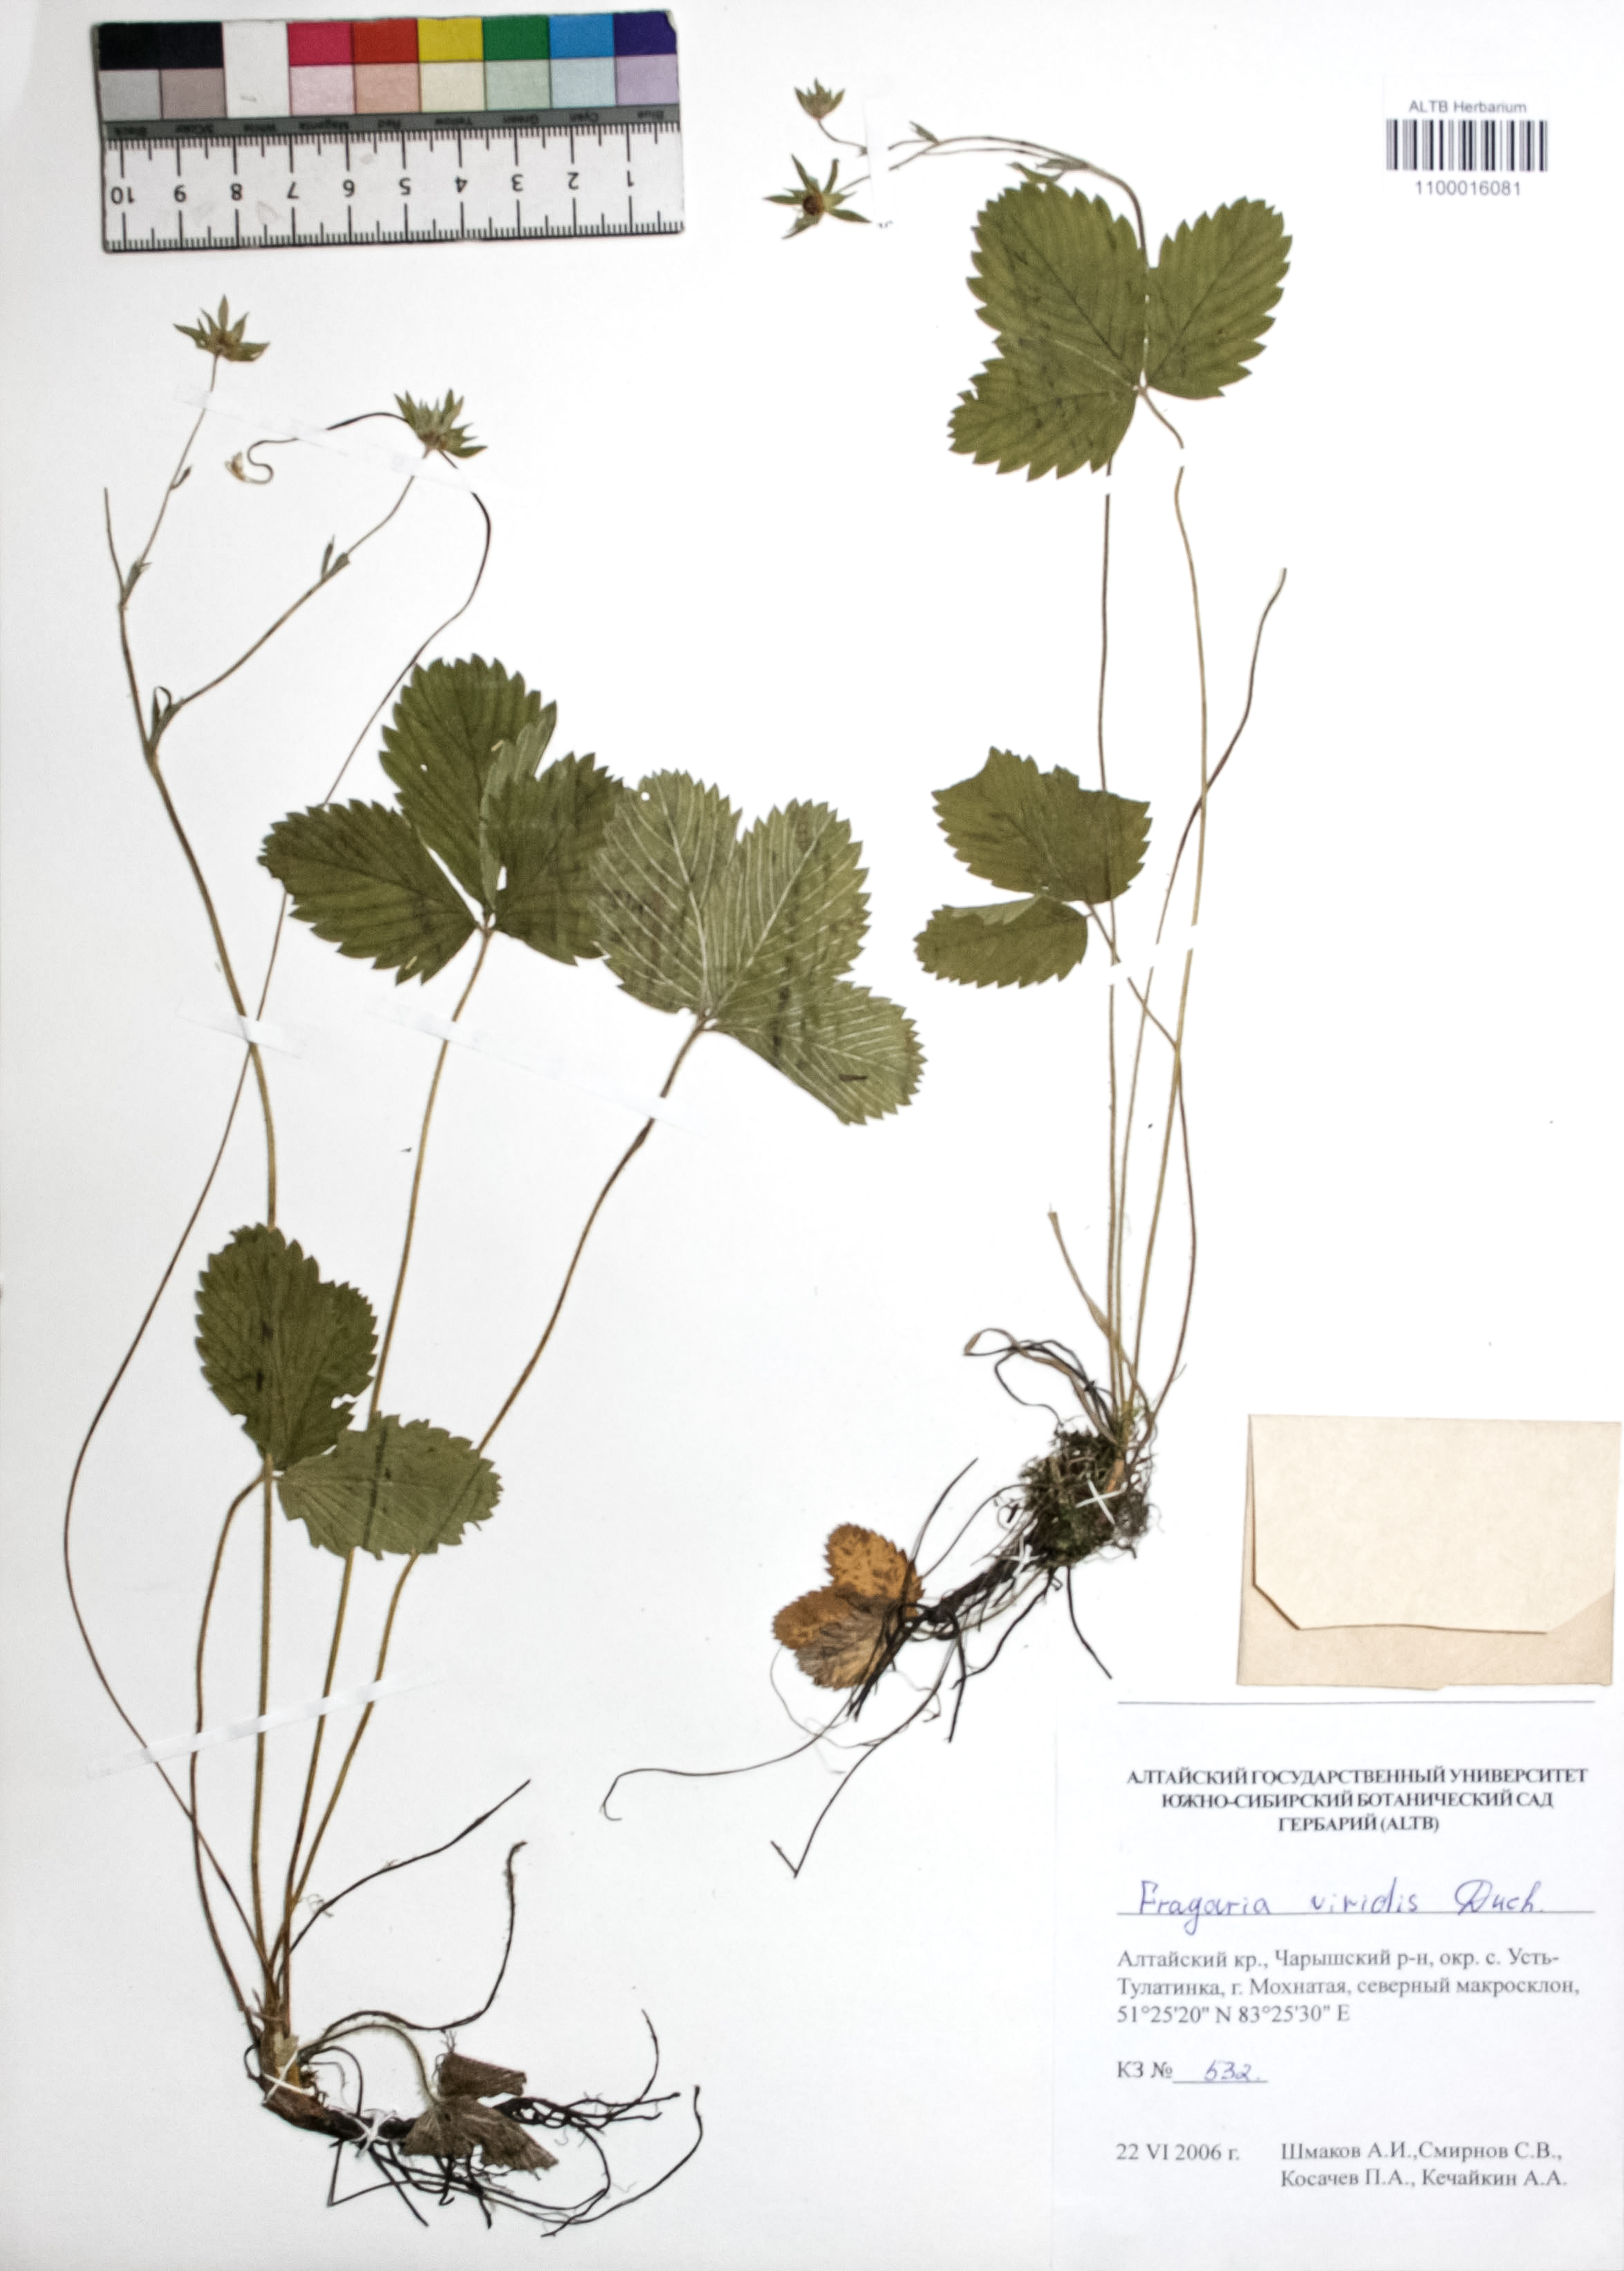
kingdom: Plantae
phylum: Tracheophyta
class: Magnoliopsida
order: Rosales
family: Rosaceae
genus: Fragaria
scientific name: Fragaria viridis
